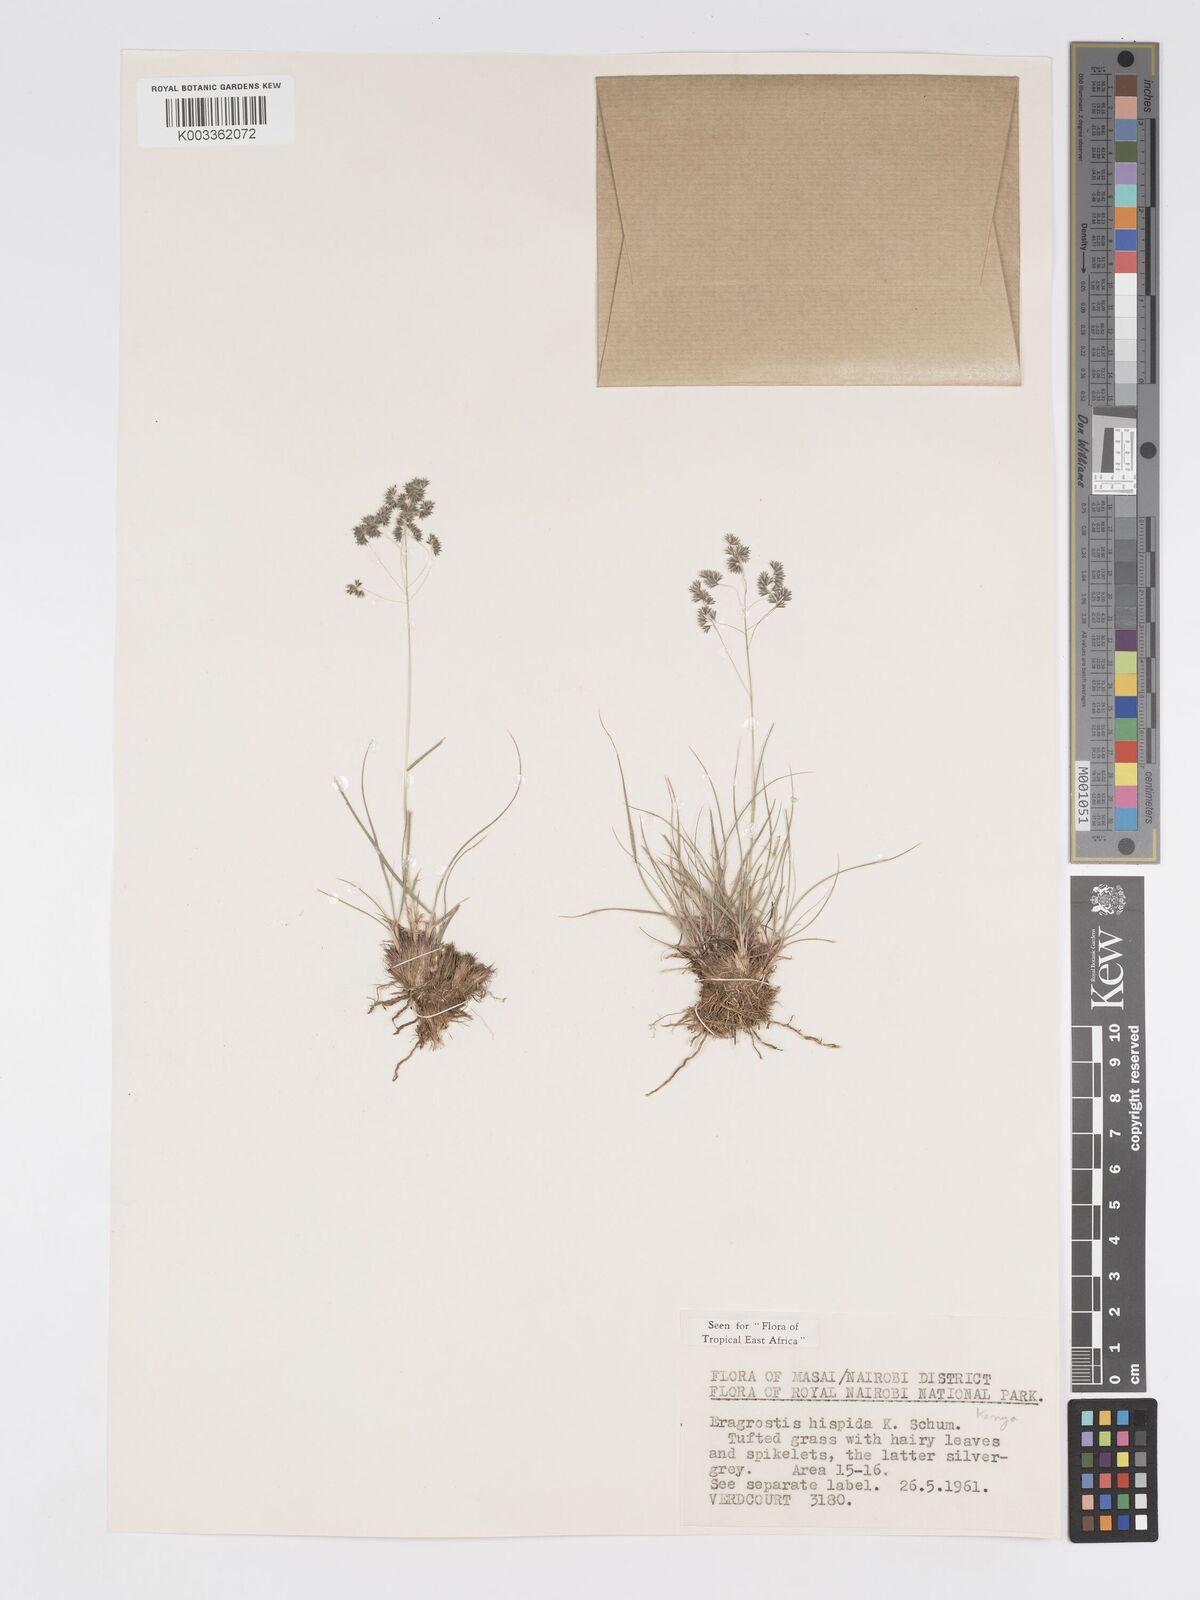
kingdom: Plantae
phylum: Tracheophyta
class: Liliopsida
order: Poales
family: Poaceae
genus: Eragrostis
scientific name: Eragrostis hispida
